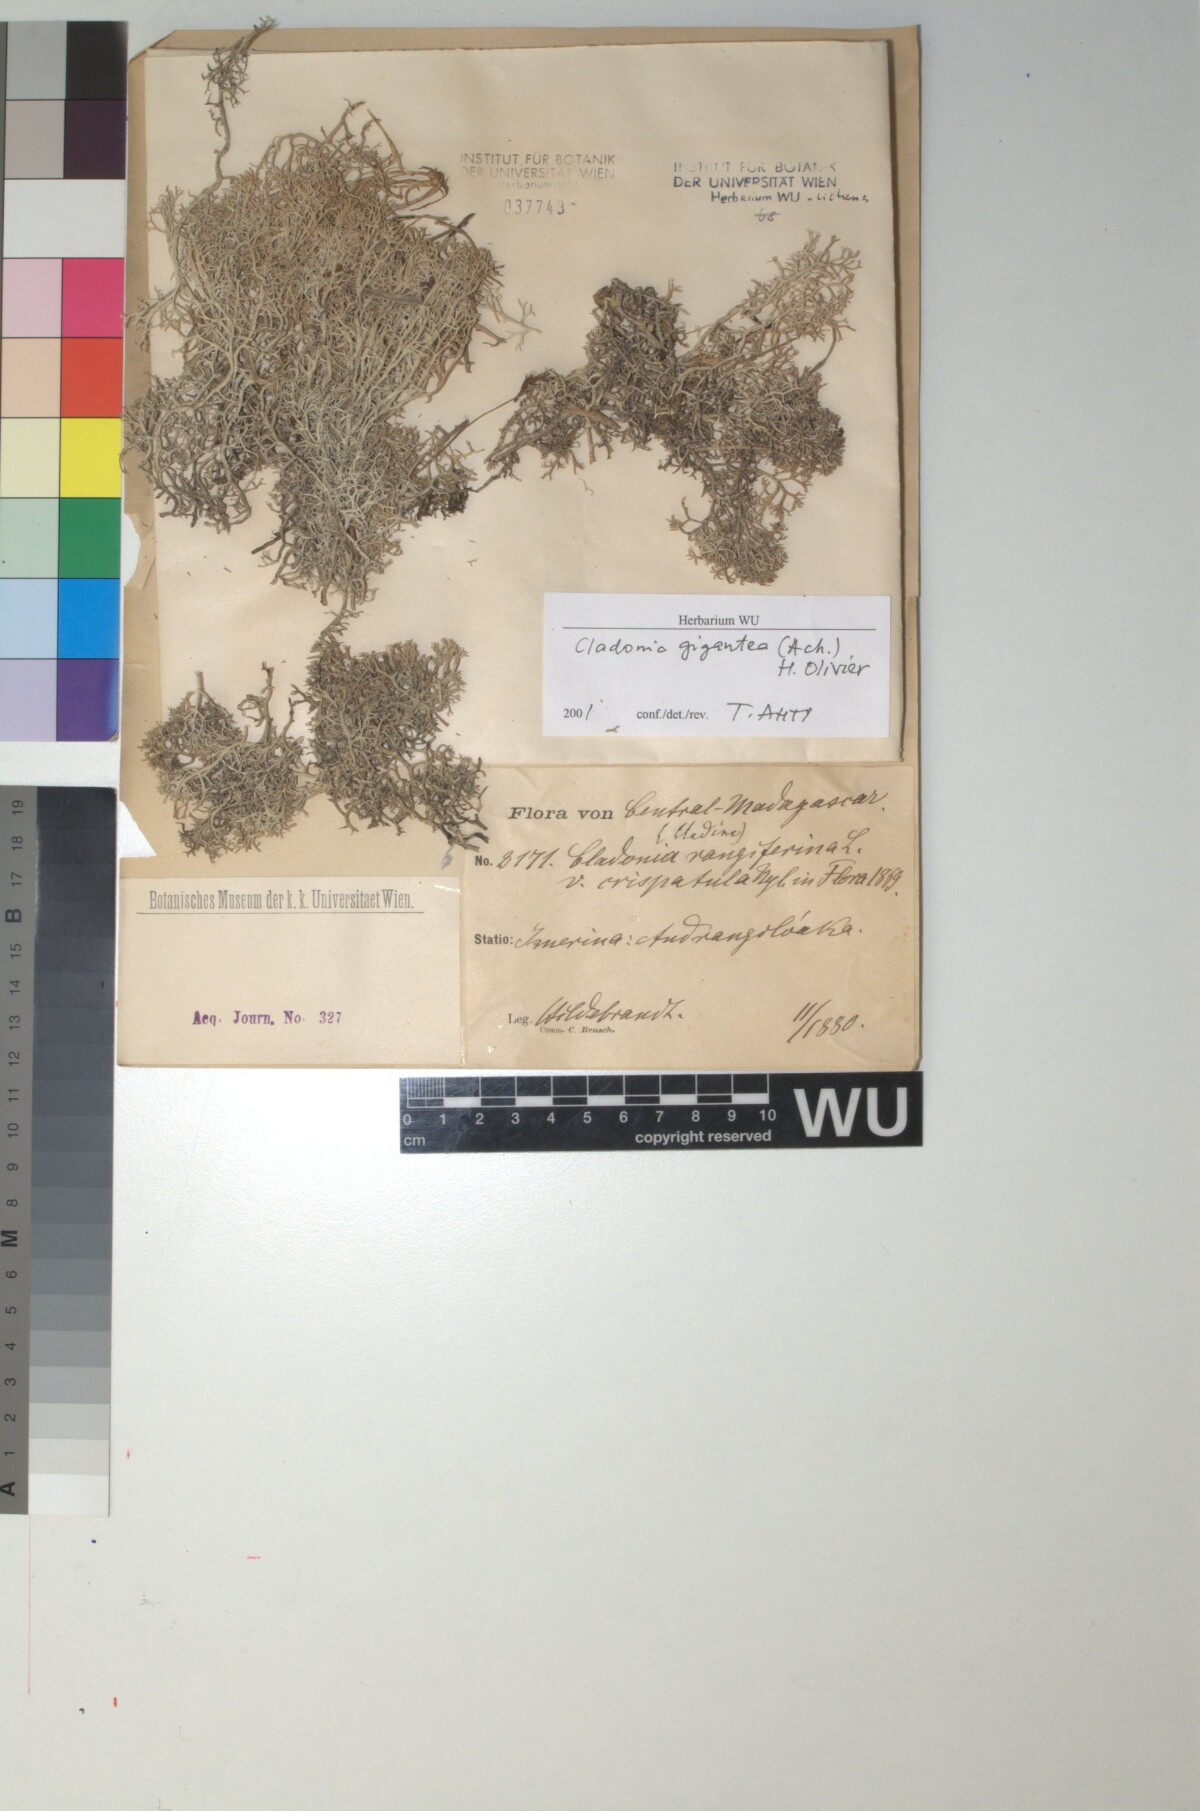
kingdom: Fungi
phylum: Ascomycota
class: Lecanoromycetes
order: Lecanorales
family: Cladoniaceae
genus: Cladonia
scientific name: Cladonia gigantea
